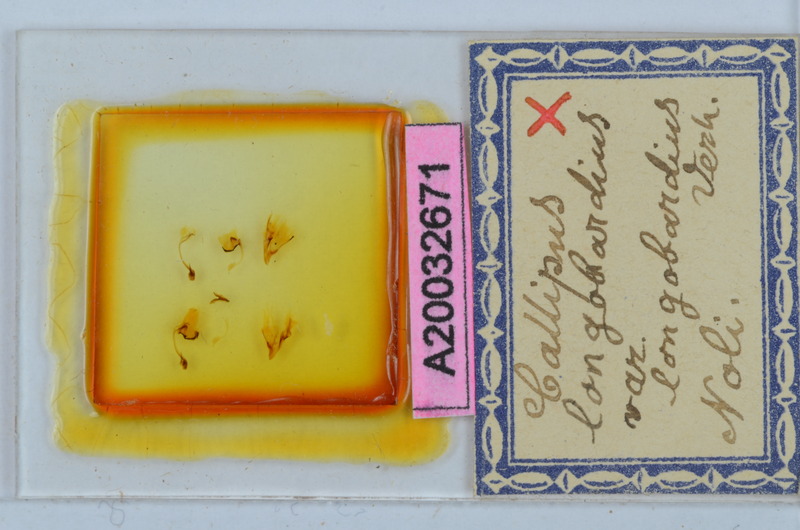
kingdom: Animalia
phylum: Arthropoda
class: Diplopoda
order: Callipodida
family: Callipodidae
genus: Callipus
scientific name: Callipus foetidissimus
